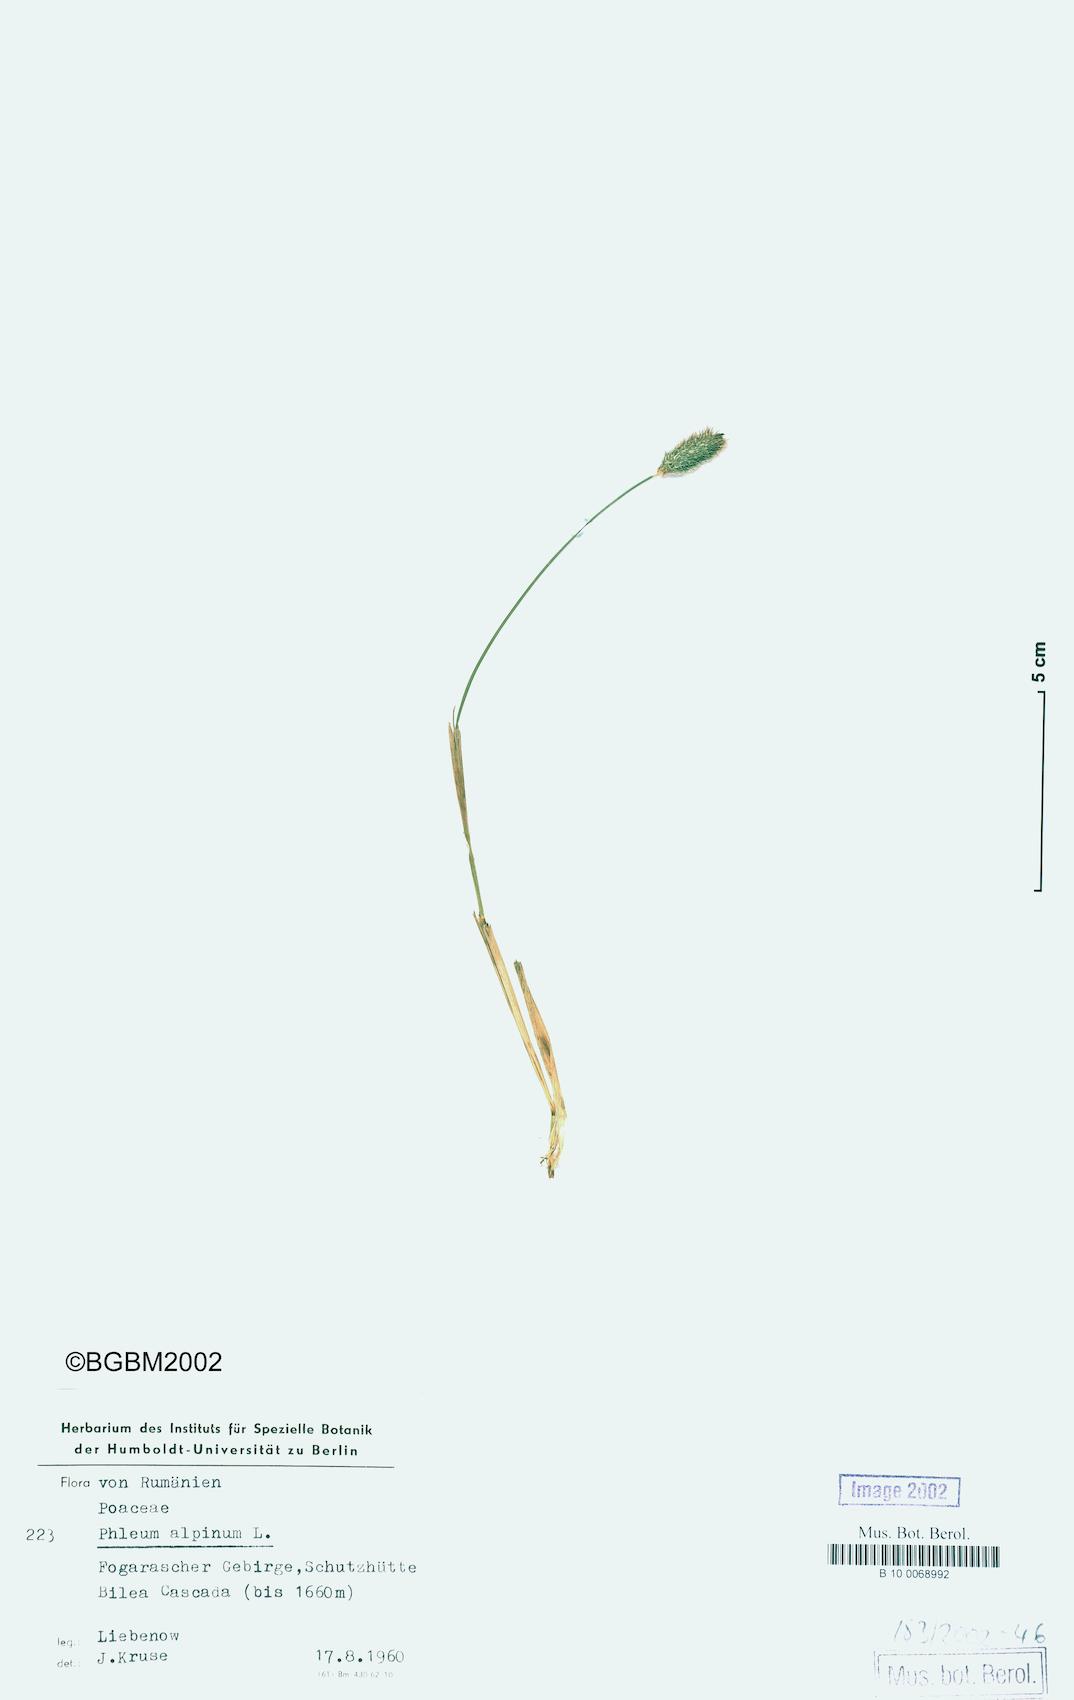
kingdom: Plantae
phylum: Tracheophyta
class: Liliopsida
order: Poales
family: Poaceae
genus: Phleum
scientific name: Phleum alpinum
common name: Alpine cat's-tail
